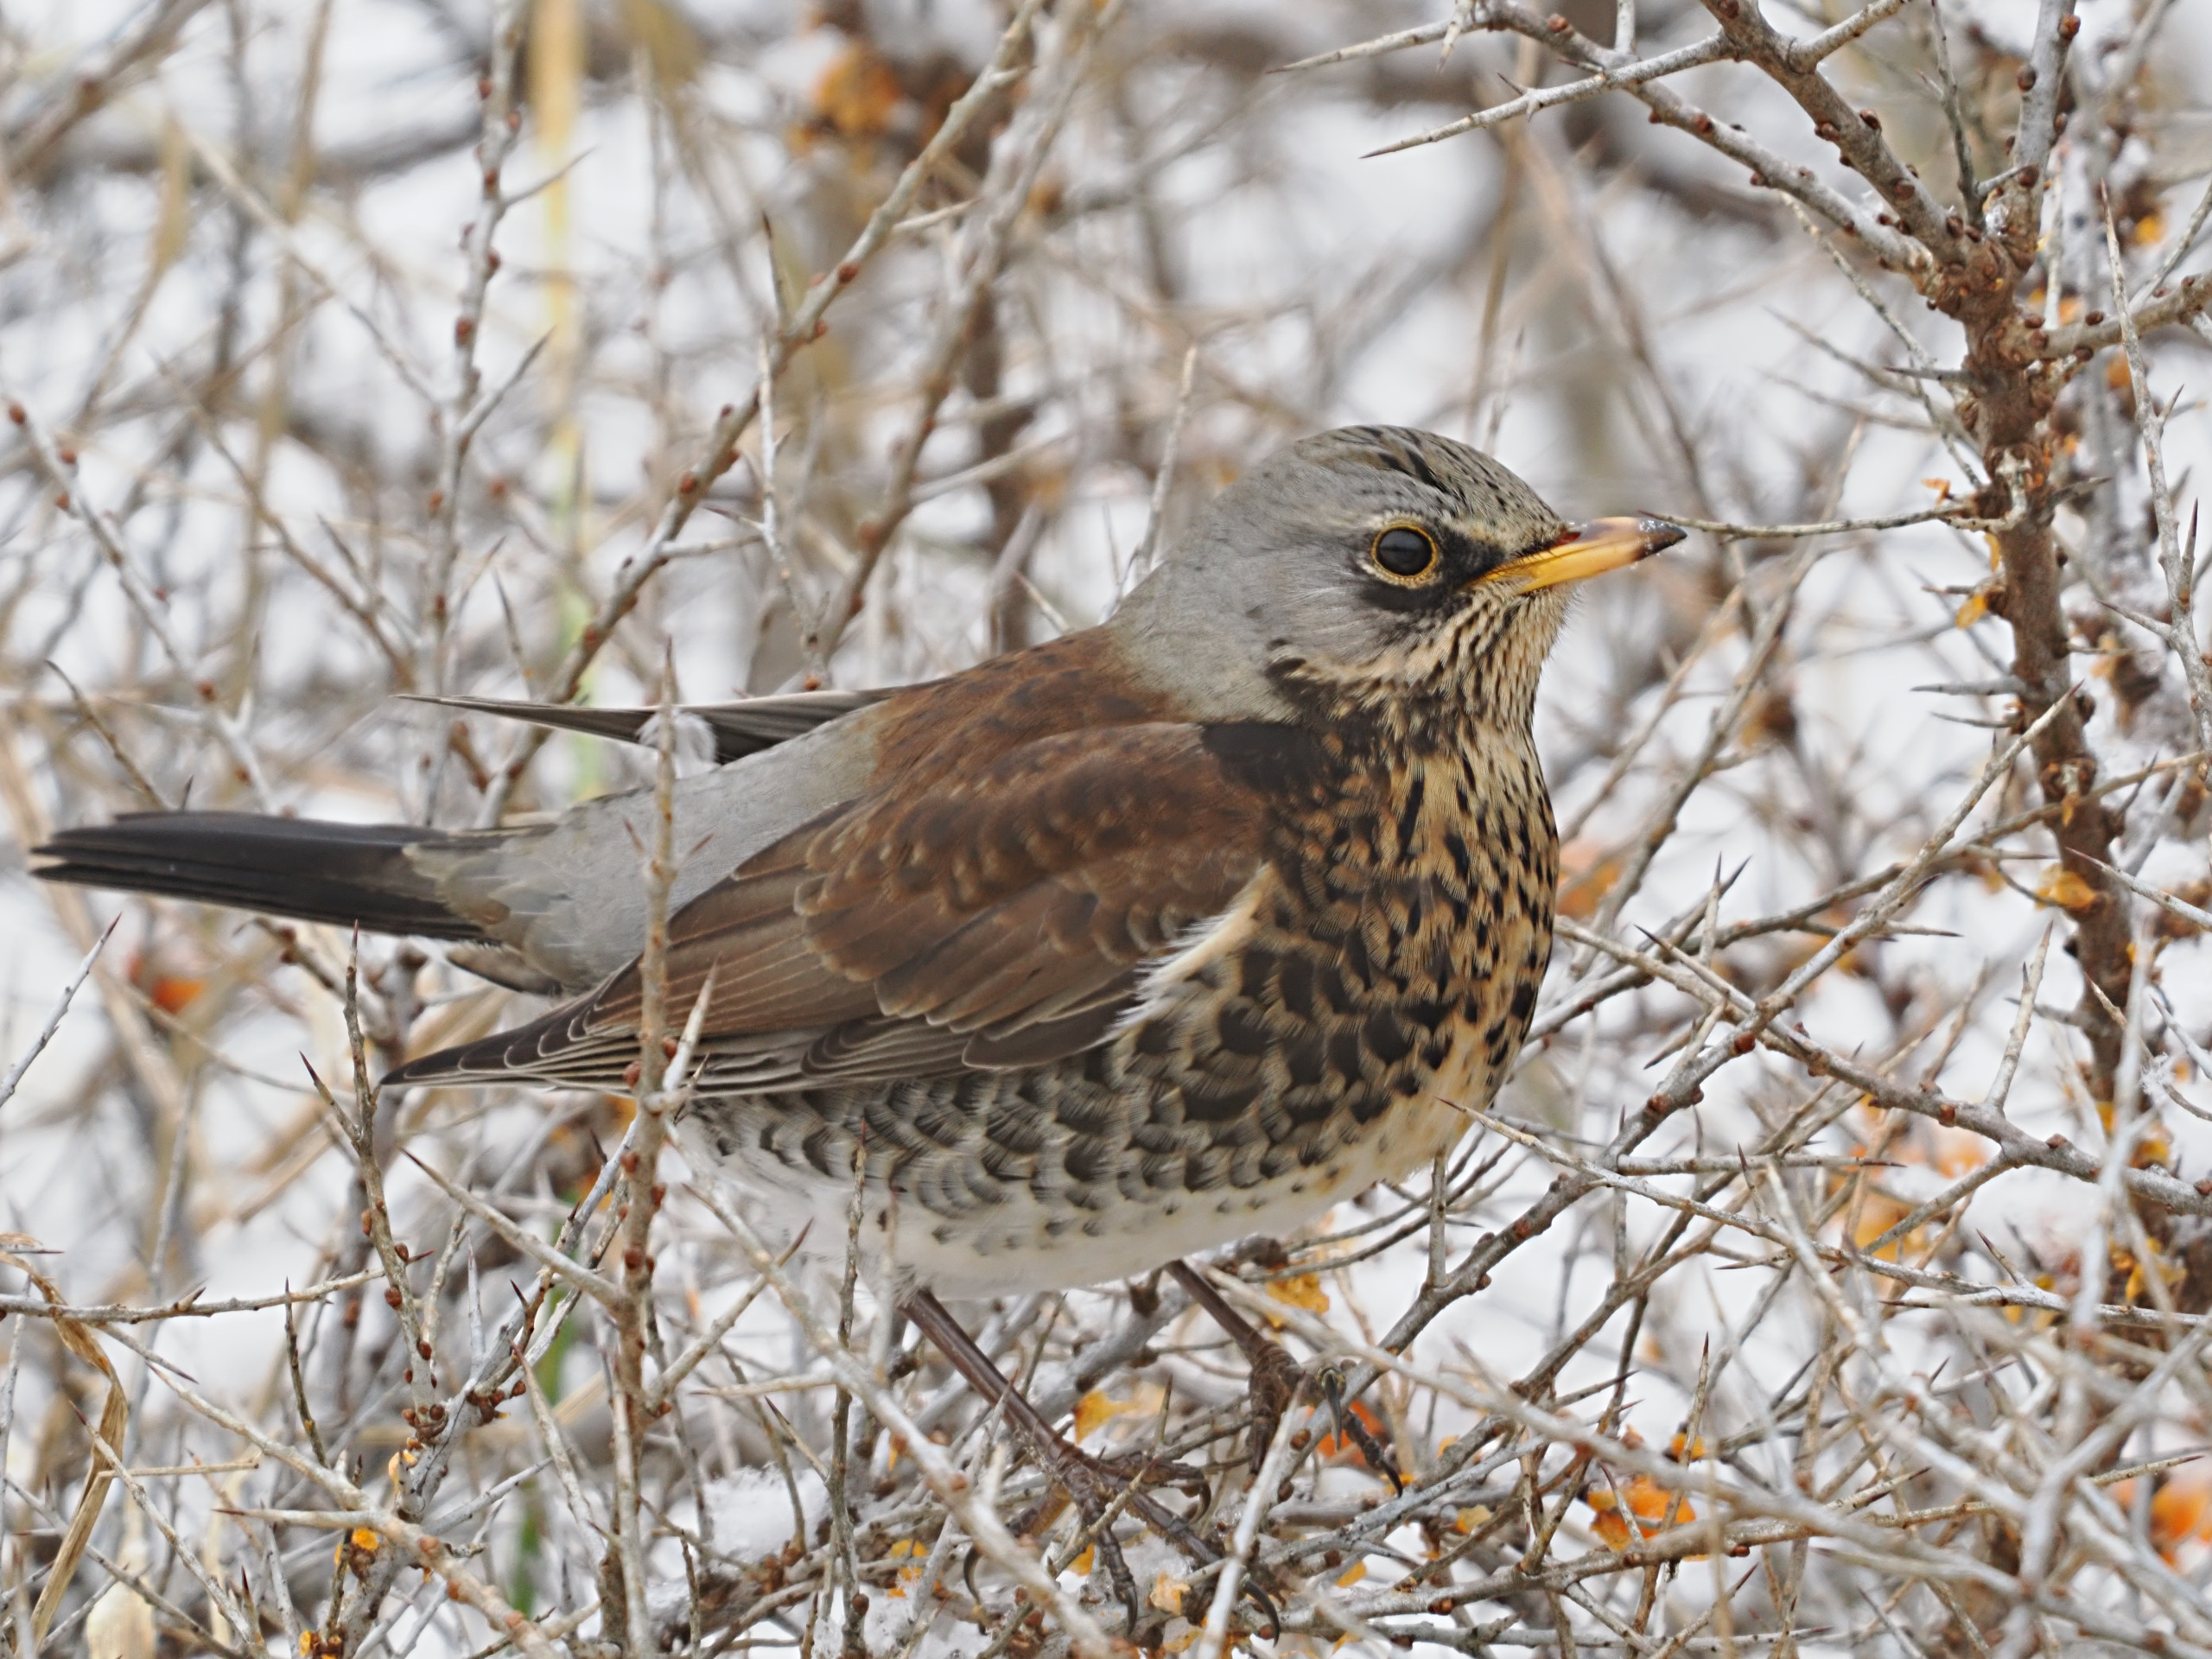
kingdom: Animalia
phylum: Chordata
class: Aves
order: Passeriformes
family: Turdidae
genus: Turdus
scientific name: Turdus pilaris
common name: Sjagger
